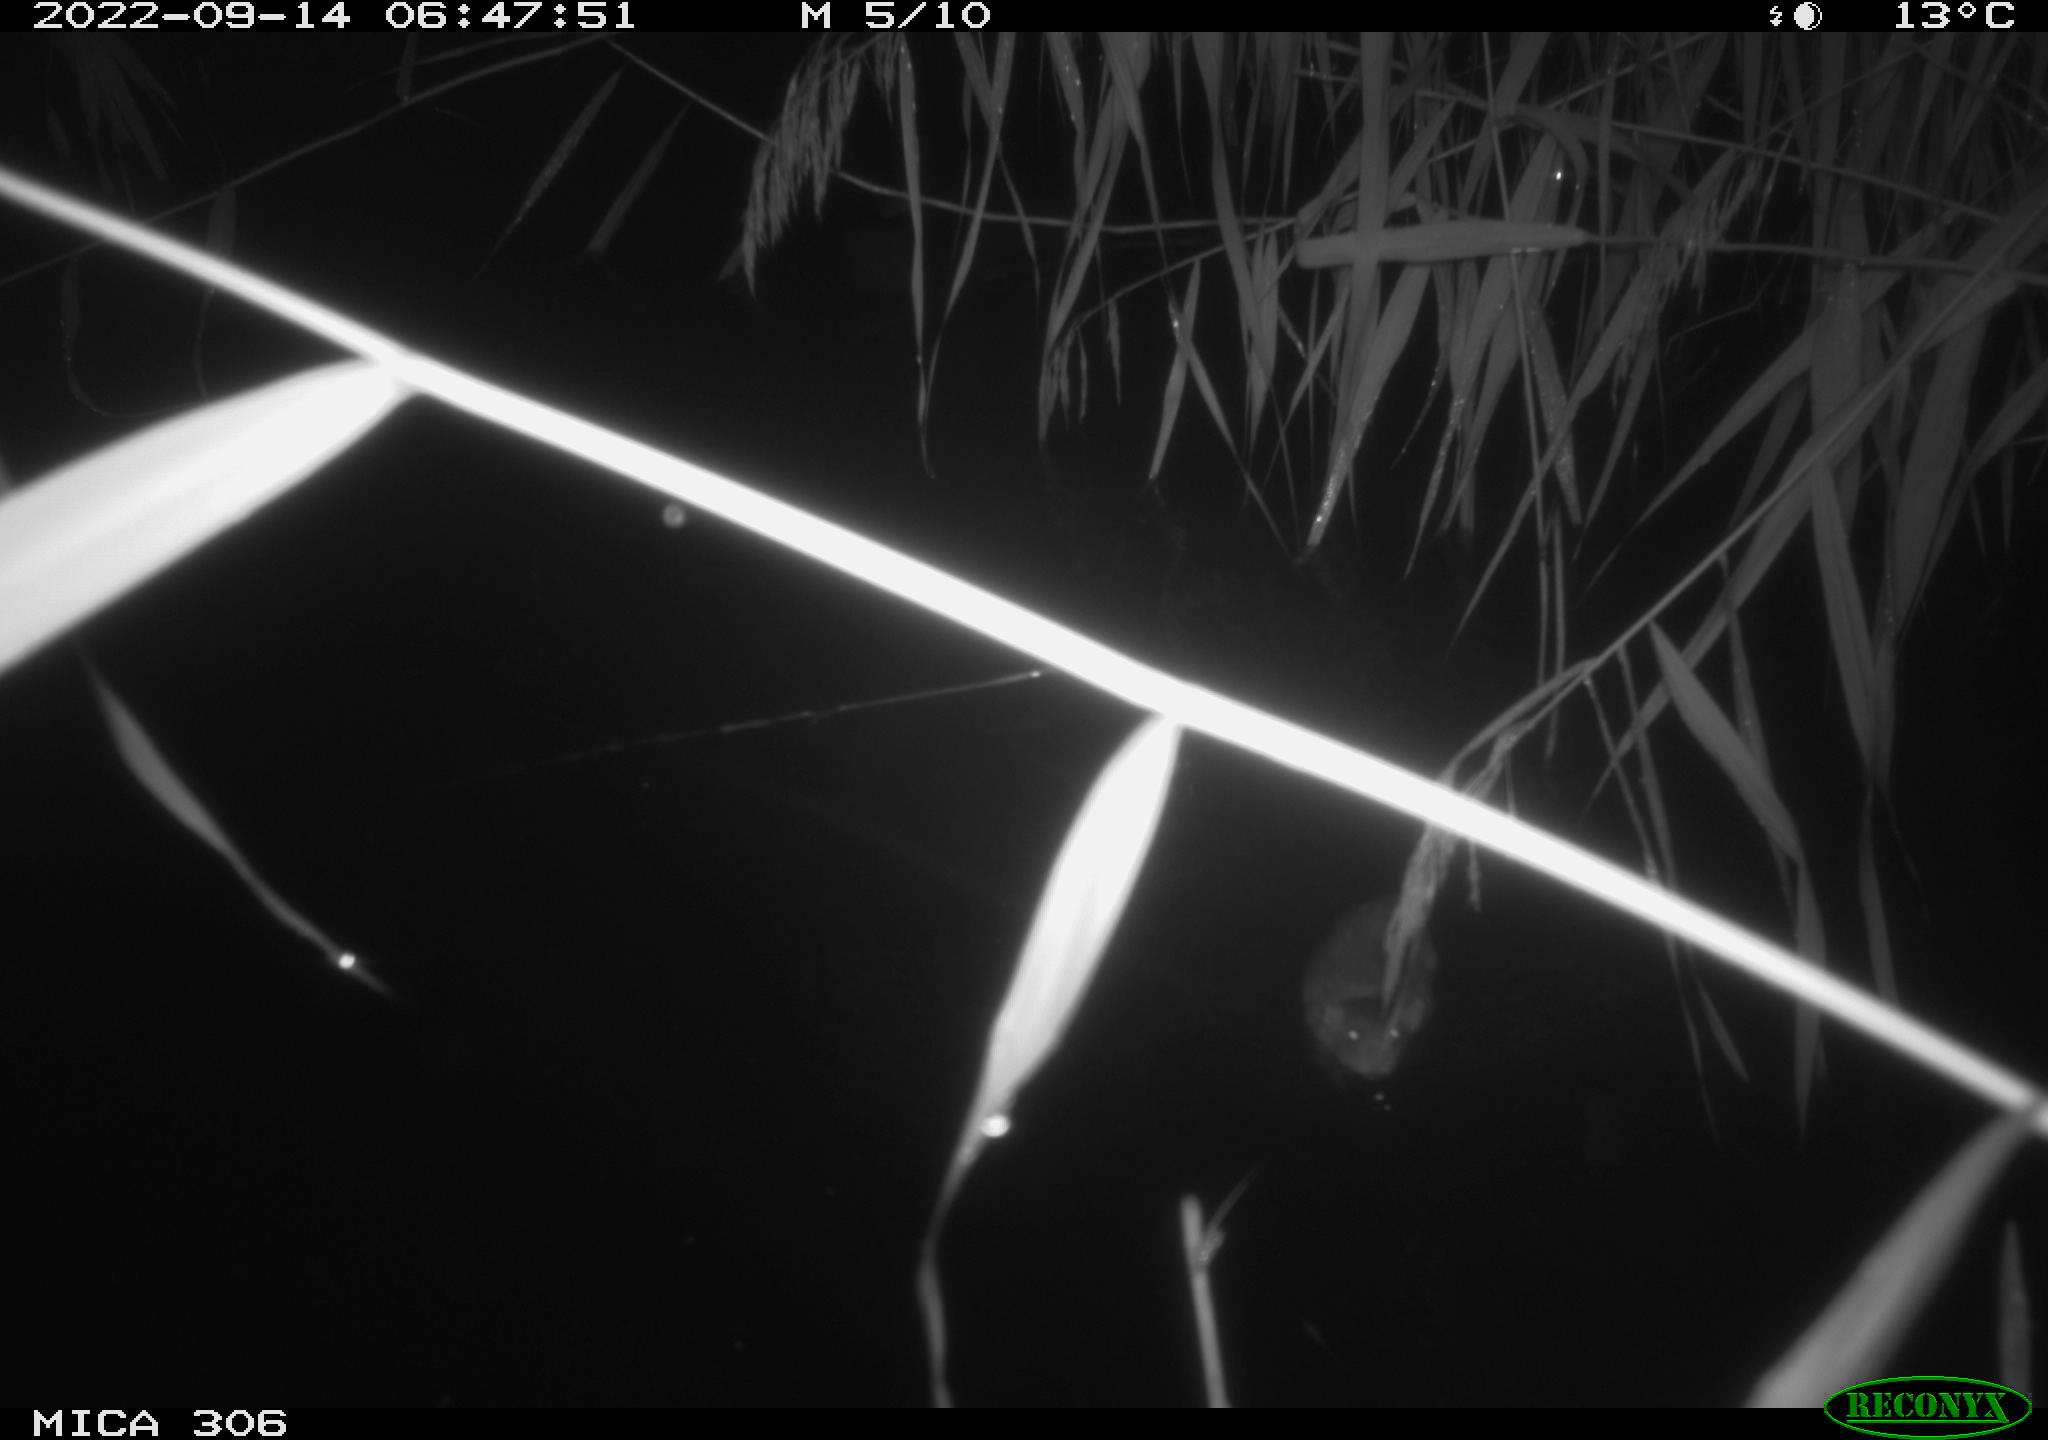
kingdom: Animalia
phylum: Chordata
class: Mammalia
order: Rodentia
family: Muridae
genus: Rattus
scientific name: Rattus norvegicus
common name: Brown rat
